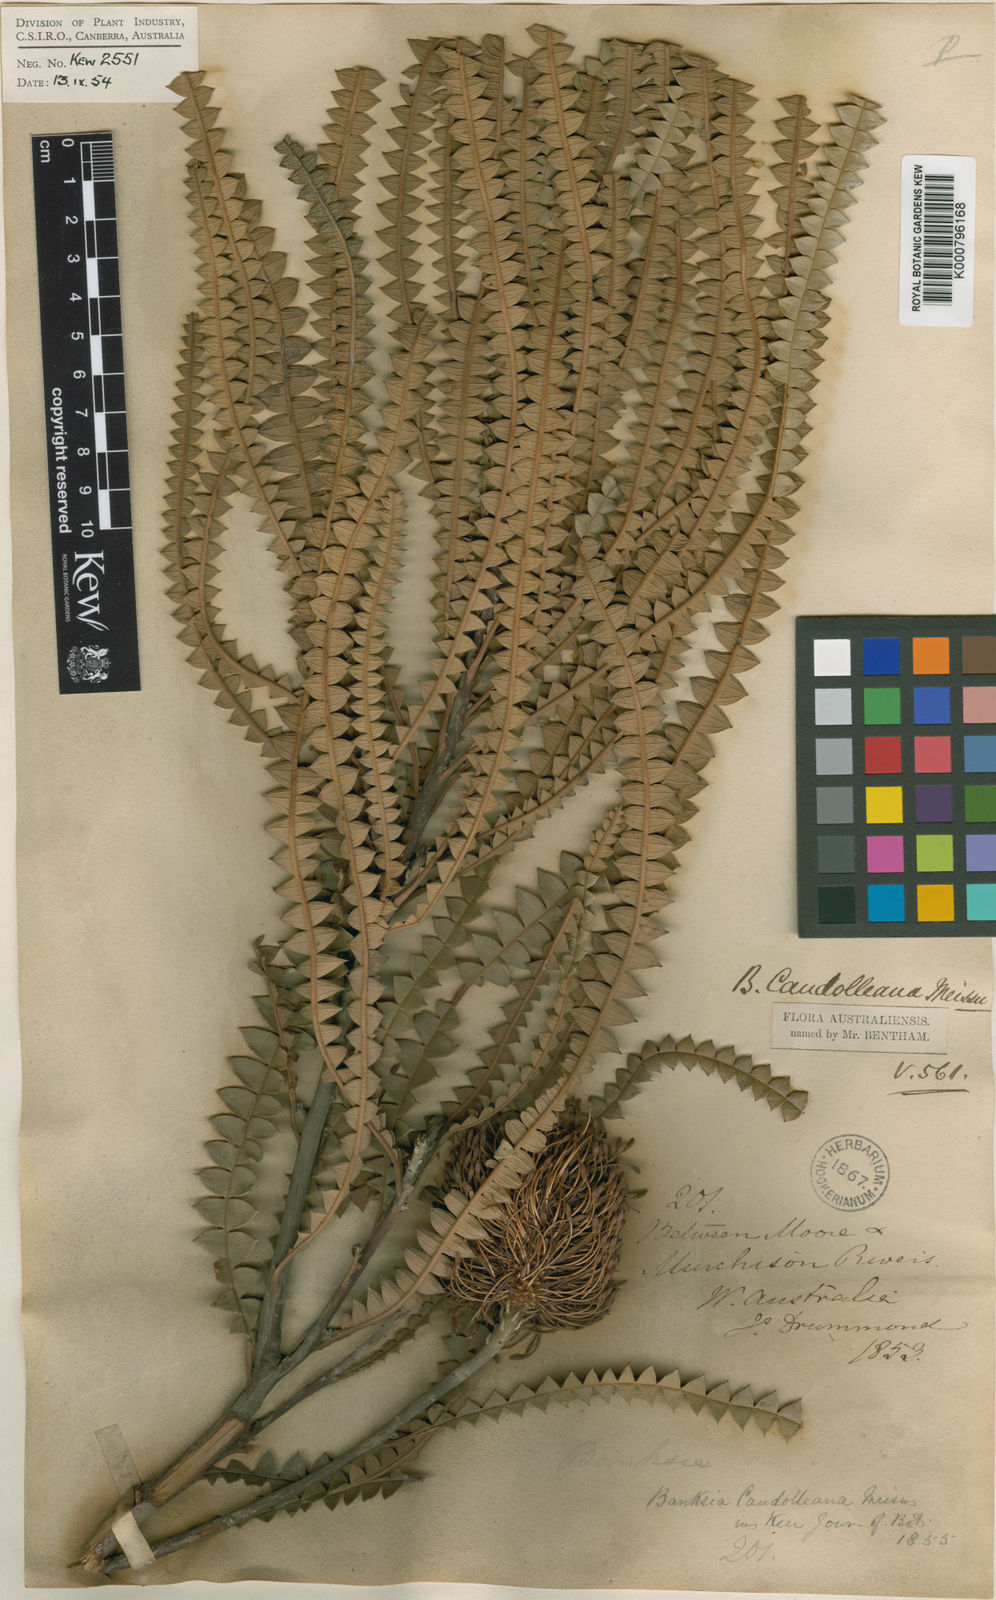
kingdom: Plantae
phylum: Tracheophyta
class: Magnoliopsida
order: Proteales
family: Proteaceae
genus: Banksia
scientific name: Banksia candolleana
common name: Propeller banksia
